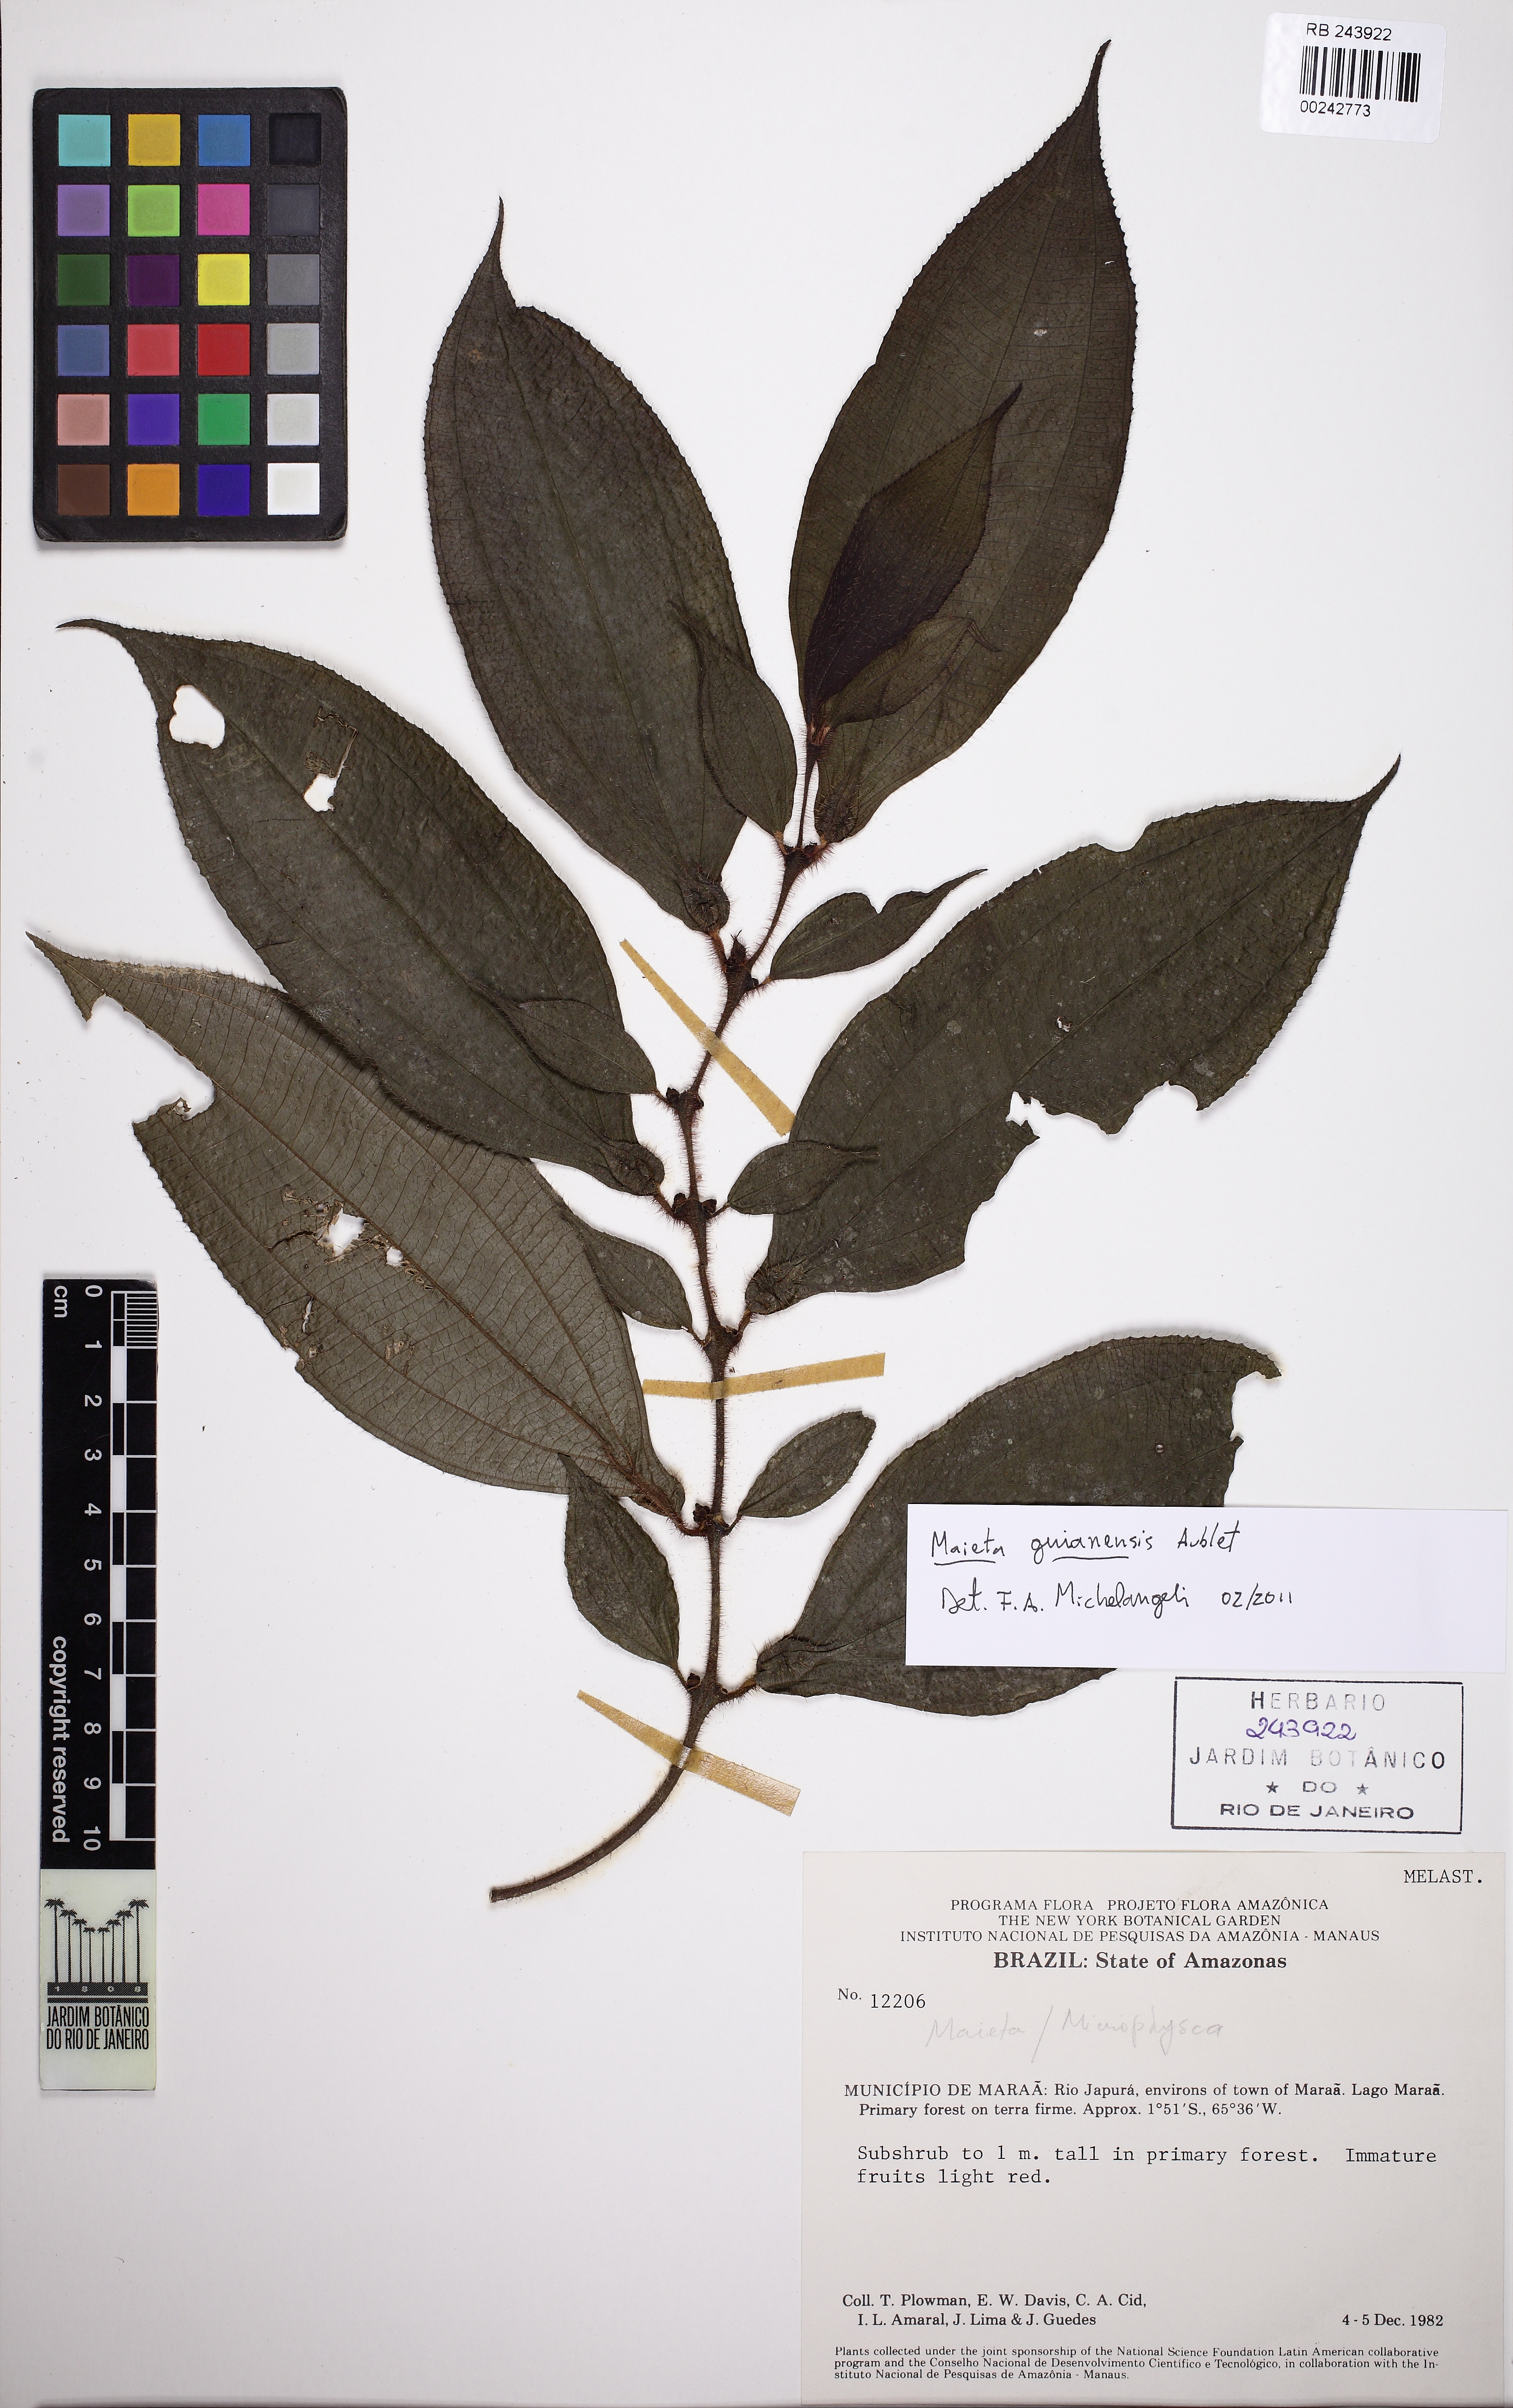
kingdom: Plantae
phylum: Tracheophyta
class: Magnoliopsida
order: Myrtales
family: Melastomataceae
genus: Miconia
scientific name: Miconia mayeta
